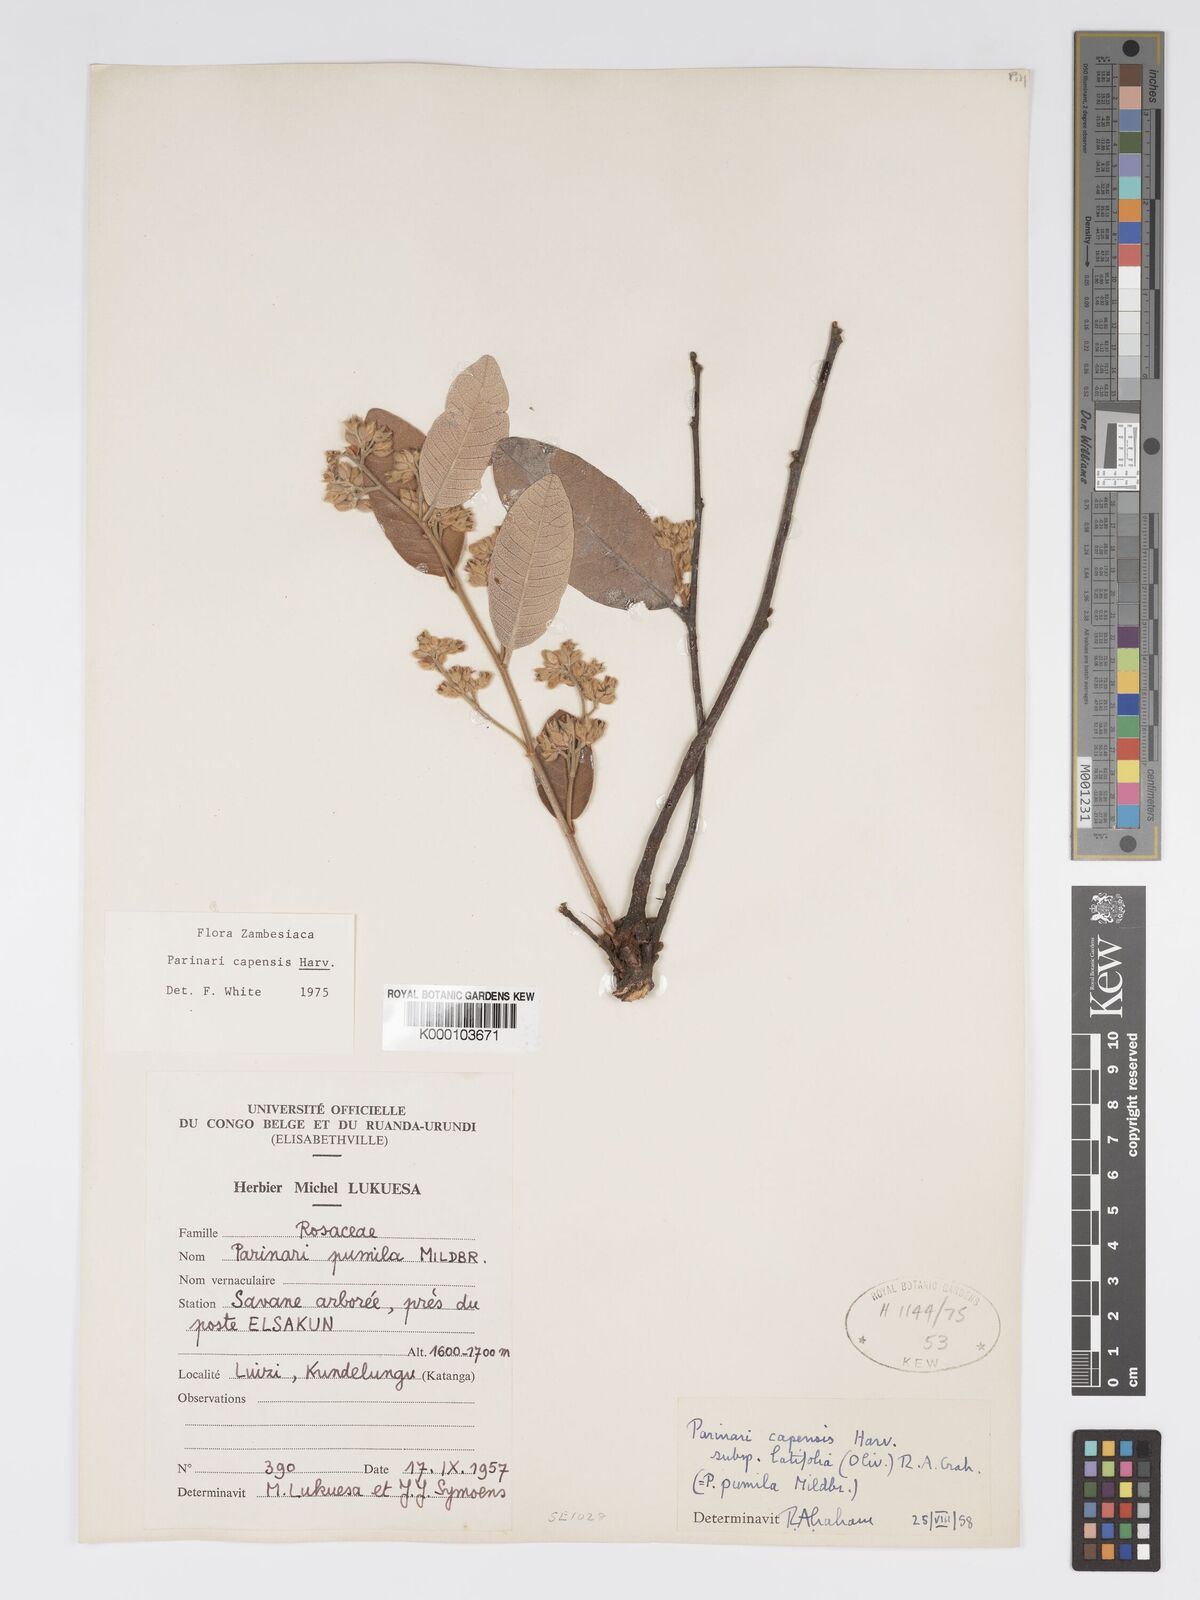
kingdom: Plantae
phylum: Tracheophyta
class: Magnoliopsida
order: Malpighiales
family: Chrysobalanaceae
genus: Parinari
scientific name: Parinari capensis
